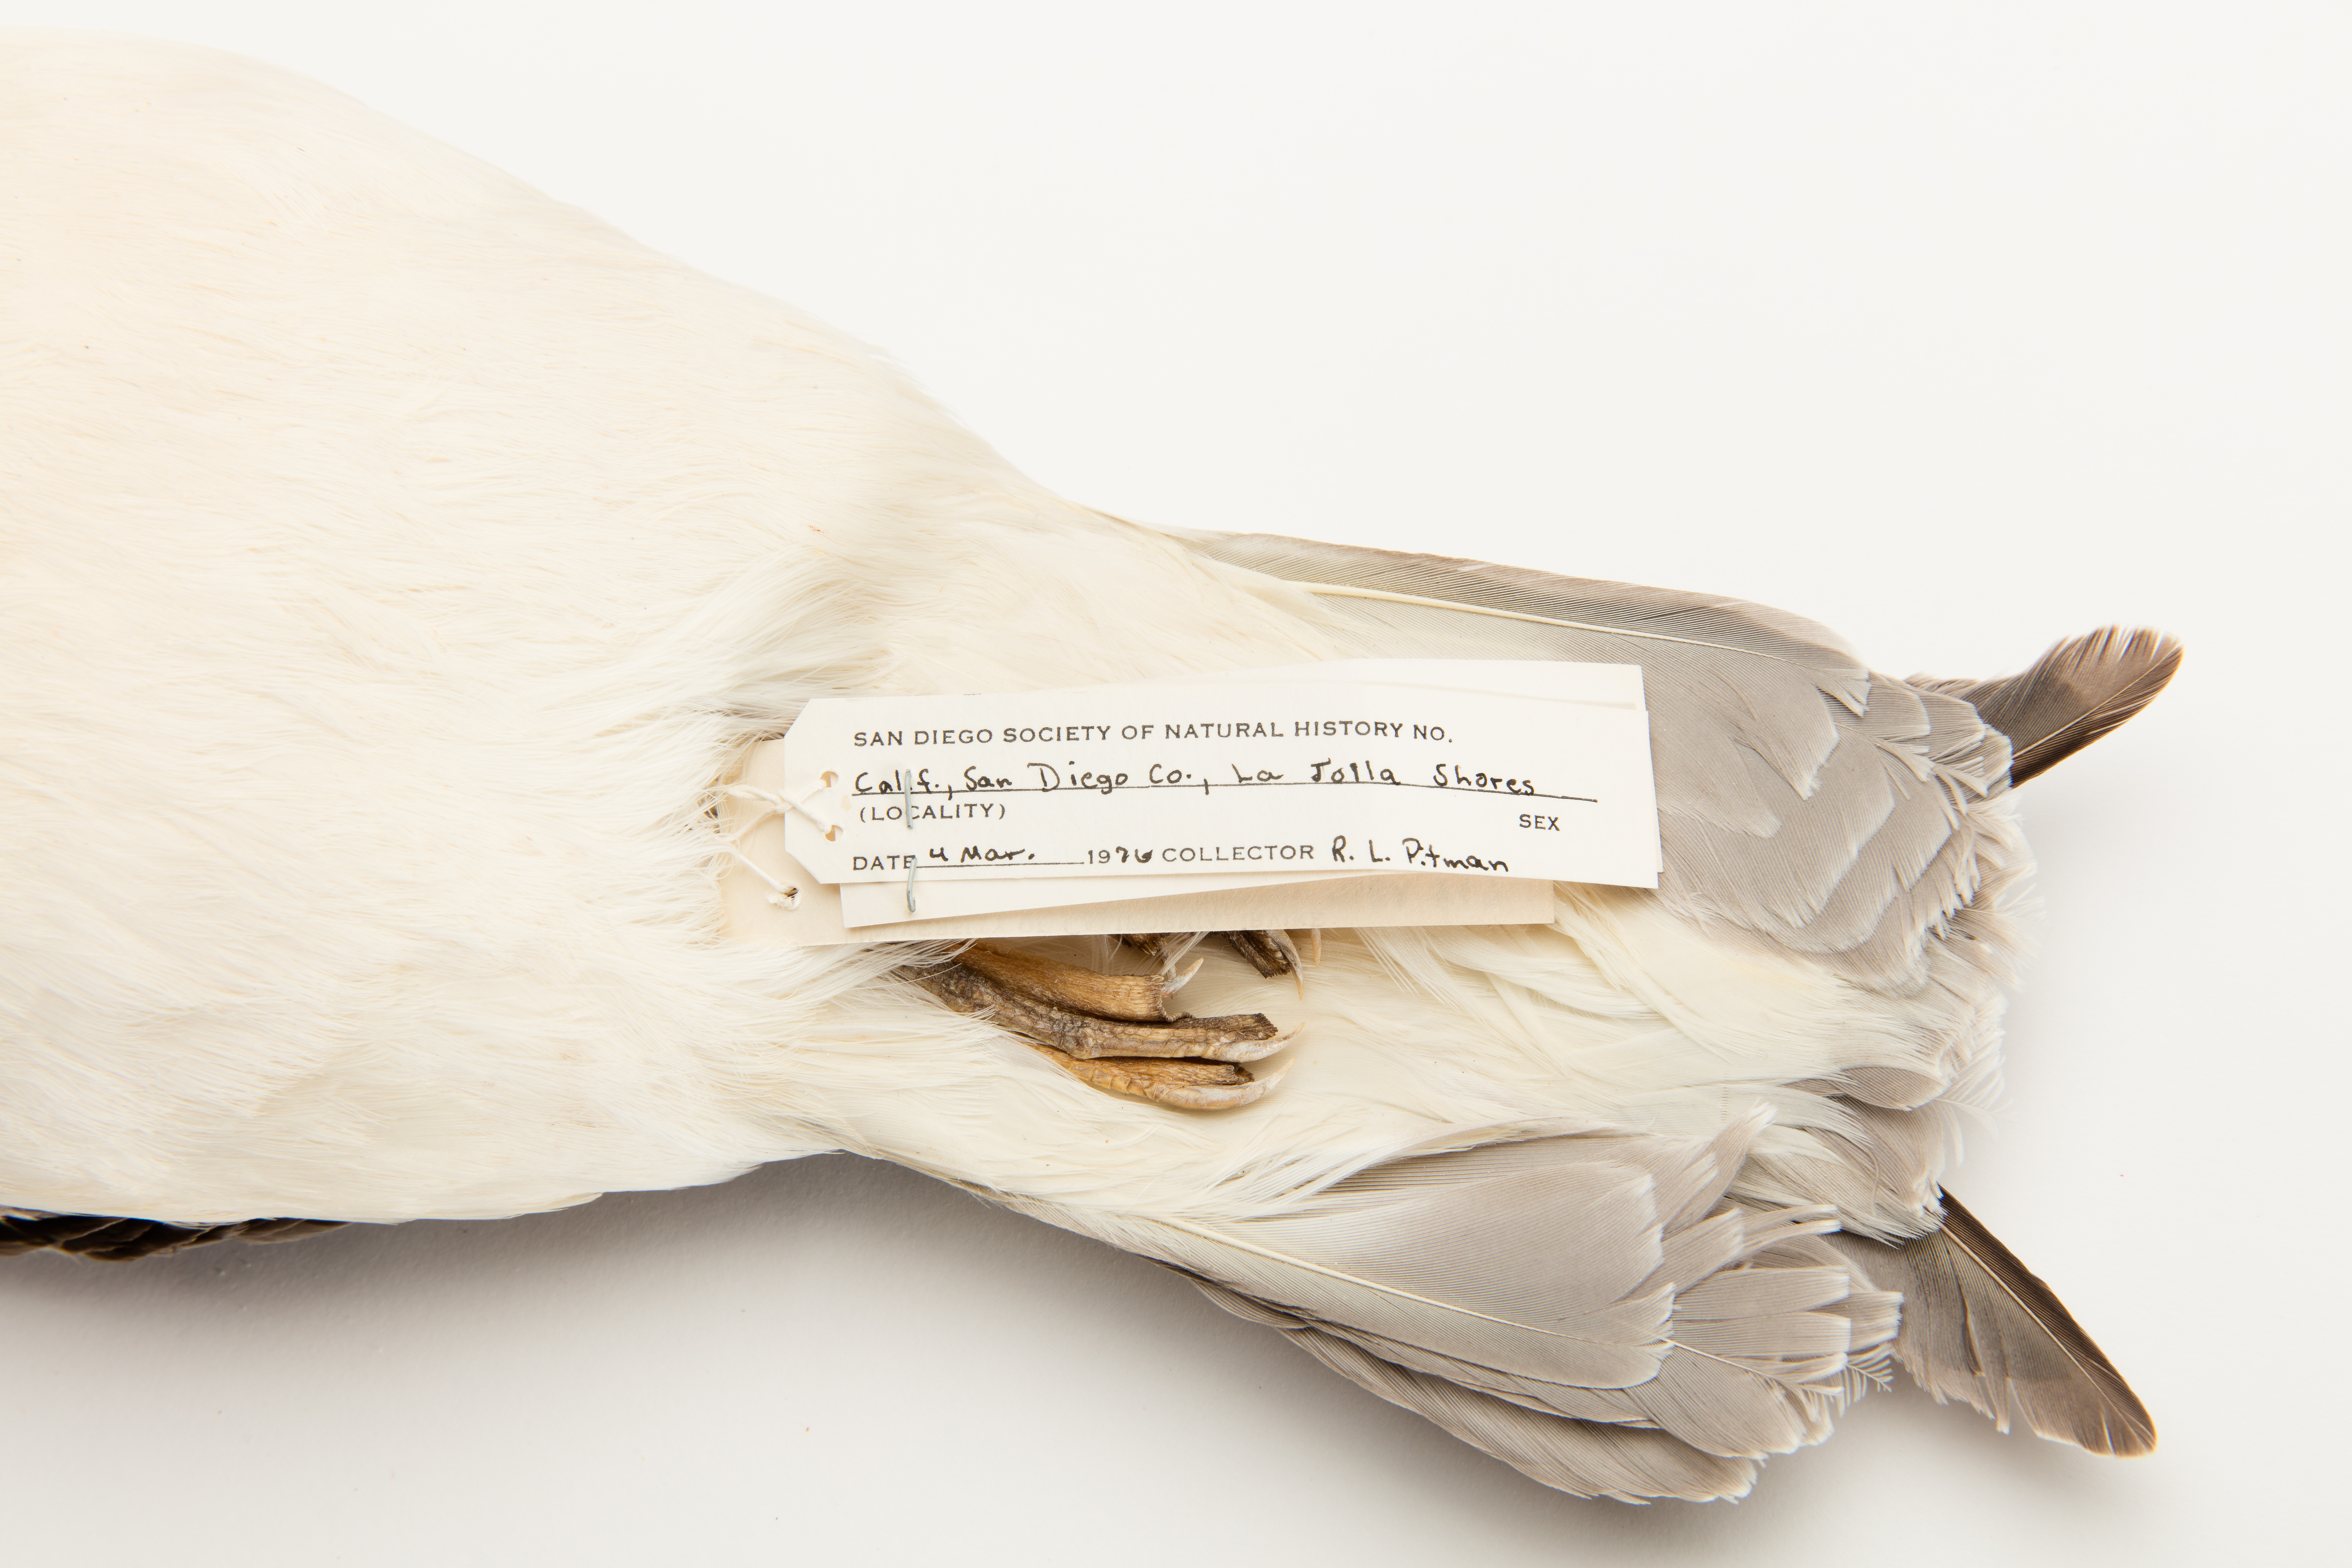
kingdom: Animalia
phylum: Chordata
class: Aves
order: Procellariiformes
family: Procellariidae
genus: Fulmarus
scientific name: Fulmarus glacialis
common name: Northern fulmar
